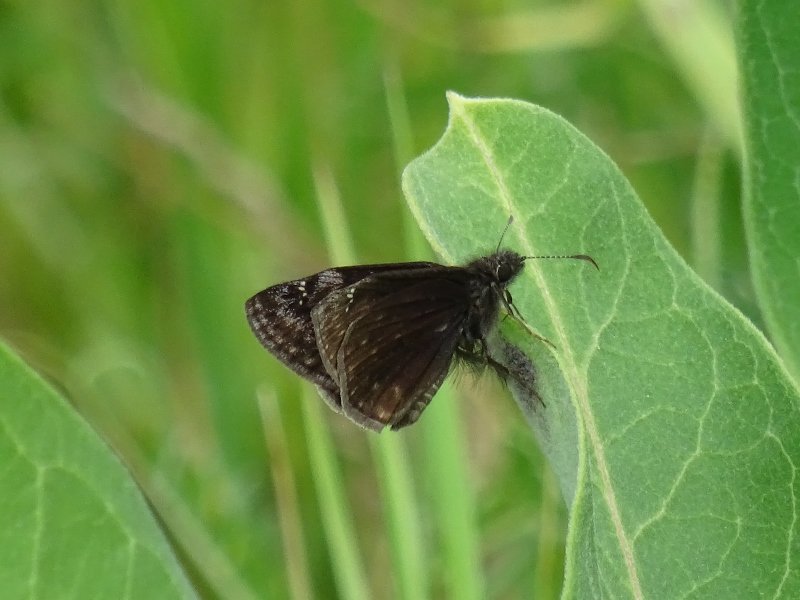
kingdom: Animalia
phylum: Arthropoda
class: Insecta
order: Lepidoptera
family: Hesperiidae
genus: Gesta
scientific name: Gesta
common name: Wild Indigo Duskywing
